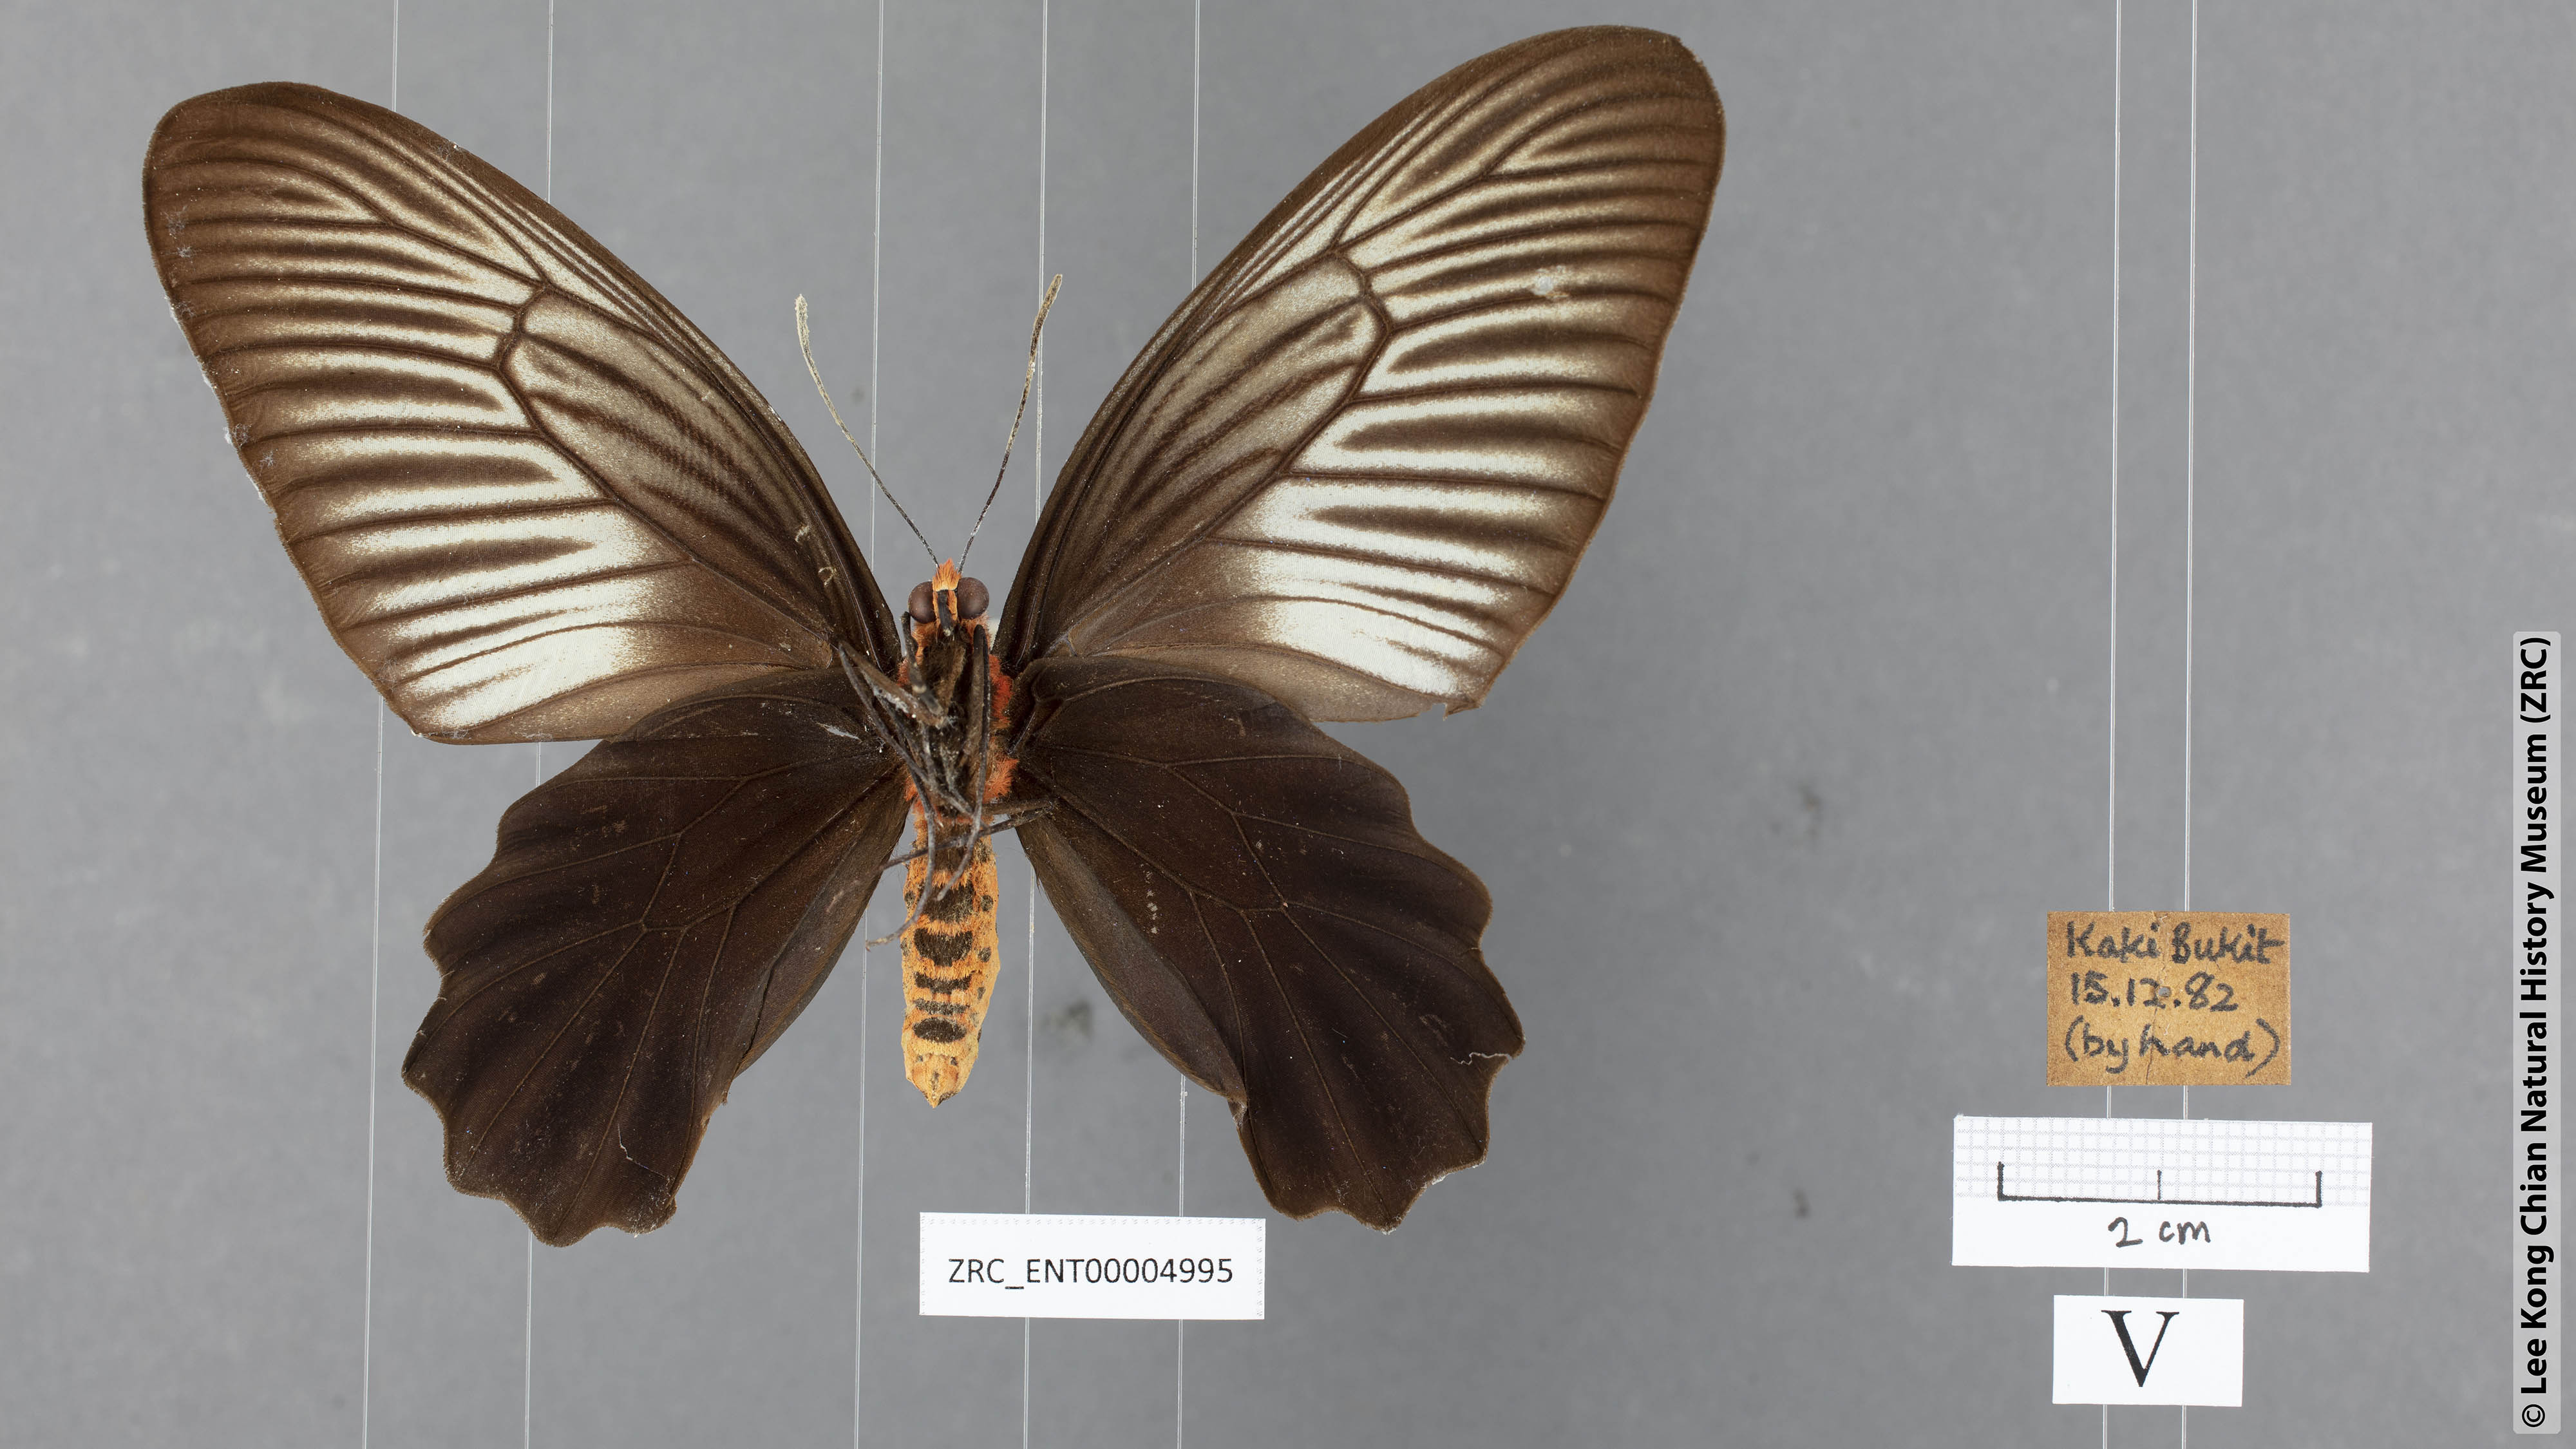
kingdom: Animalia
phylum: Arthropoda
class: Insecta
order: Lepidoptera
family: Papilionidae
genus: Atrophaneura
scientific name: Atrophaneura varuna
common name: Common batwing
